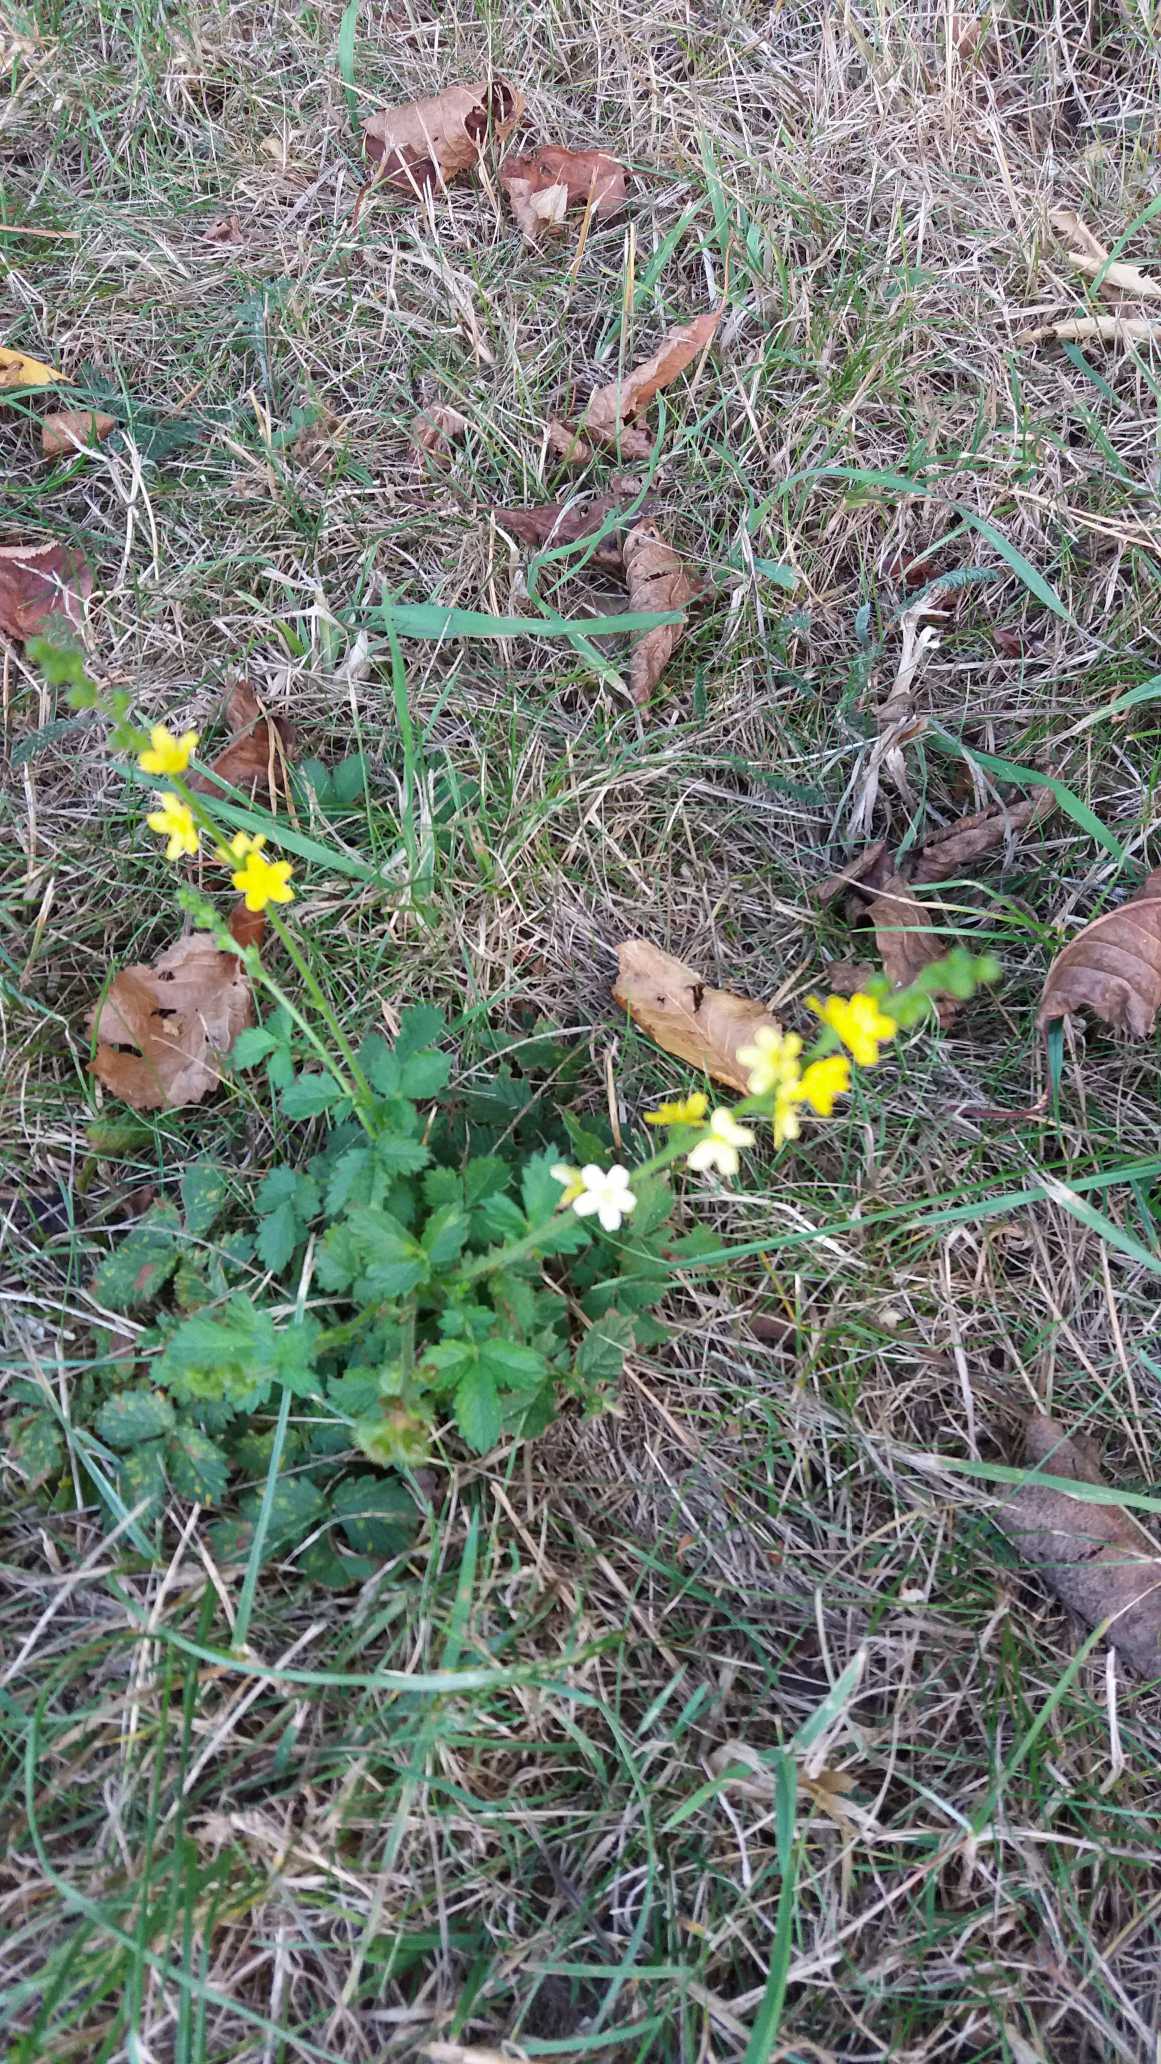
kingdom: Plantae
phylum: Tracheophyta
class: Magnoliopsida
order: Rosales
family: Rosaceae
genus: Agrimonia
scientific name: Agrimonia
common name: Agermåneslægten
